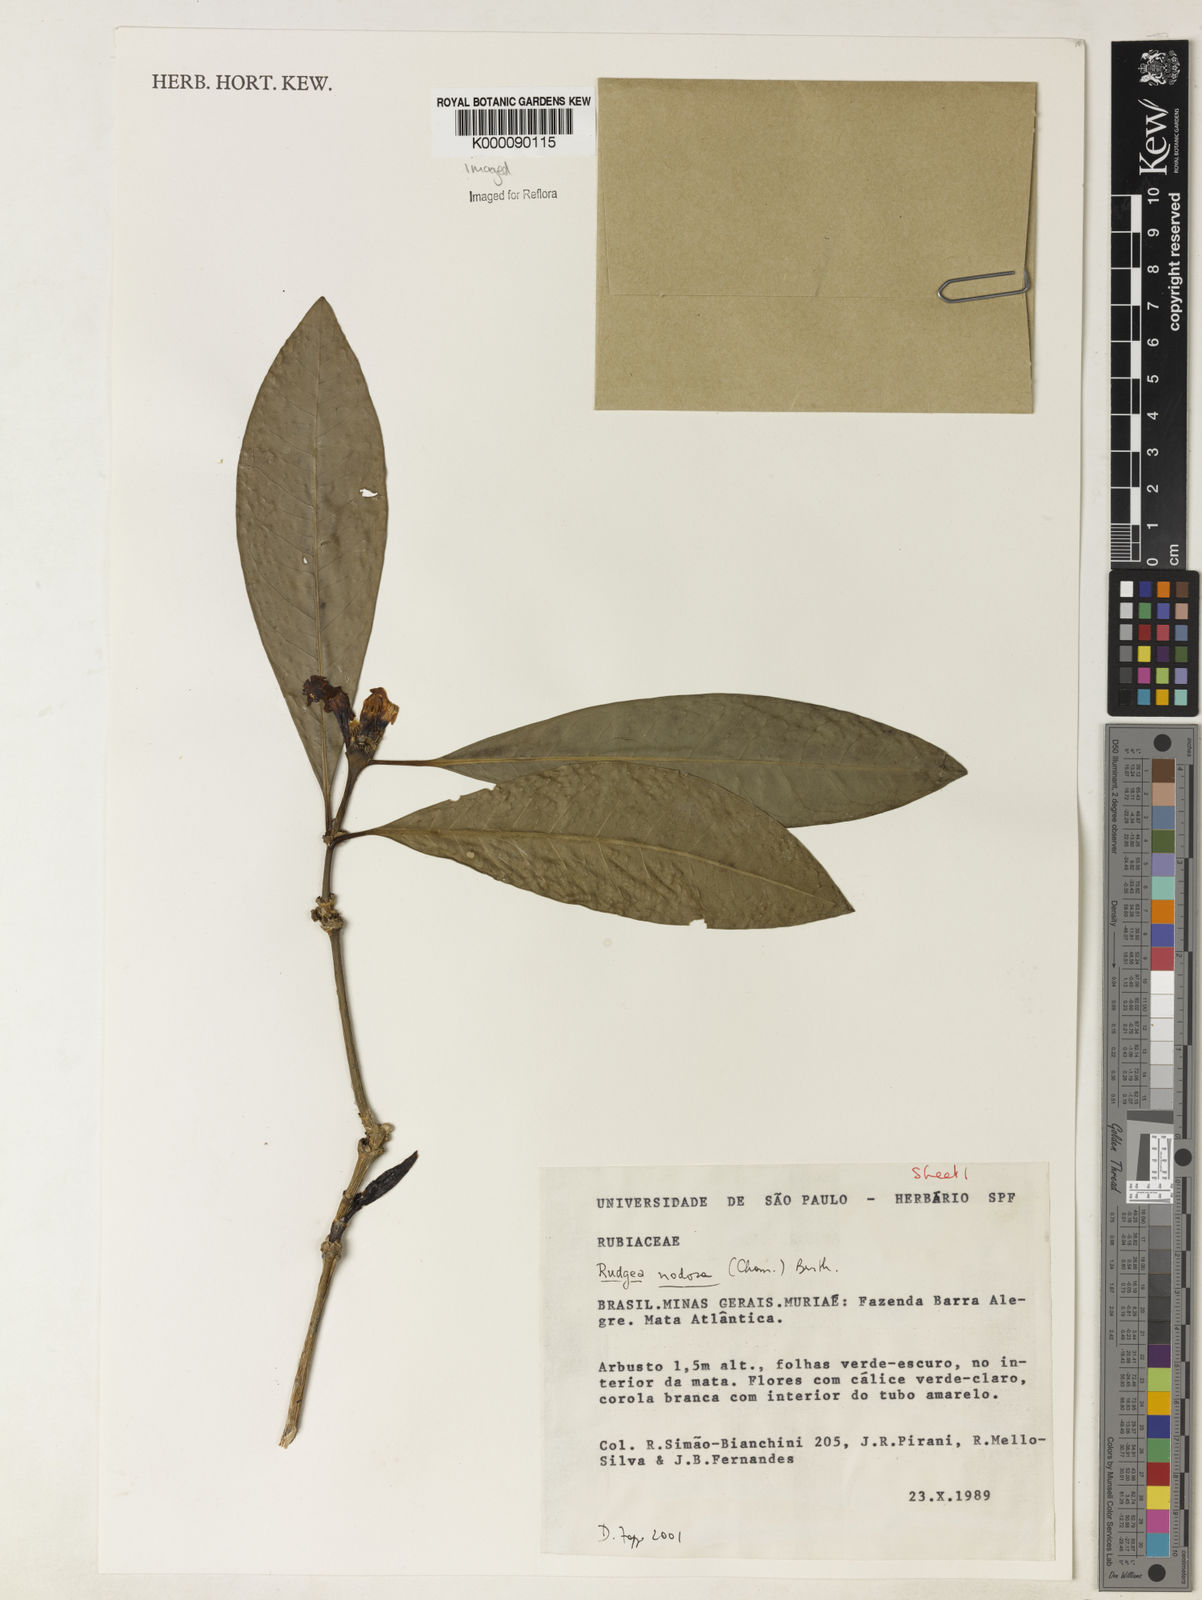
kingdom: Plantae
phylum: Tracheophyta
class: Magnoliopsida
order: Gentianales
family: Rubiaceae
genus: Rudgea
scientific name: Rudgea nodosa
